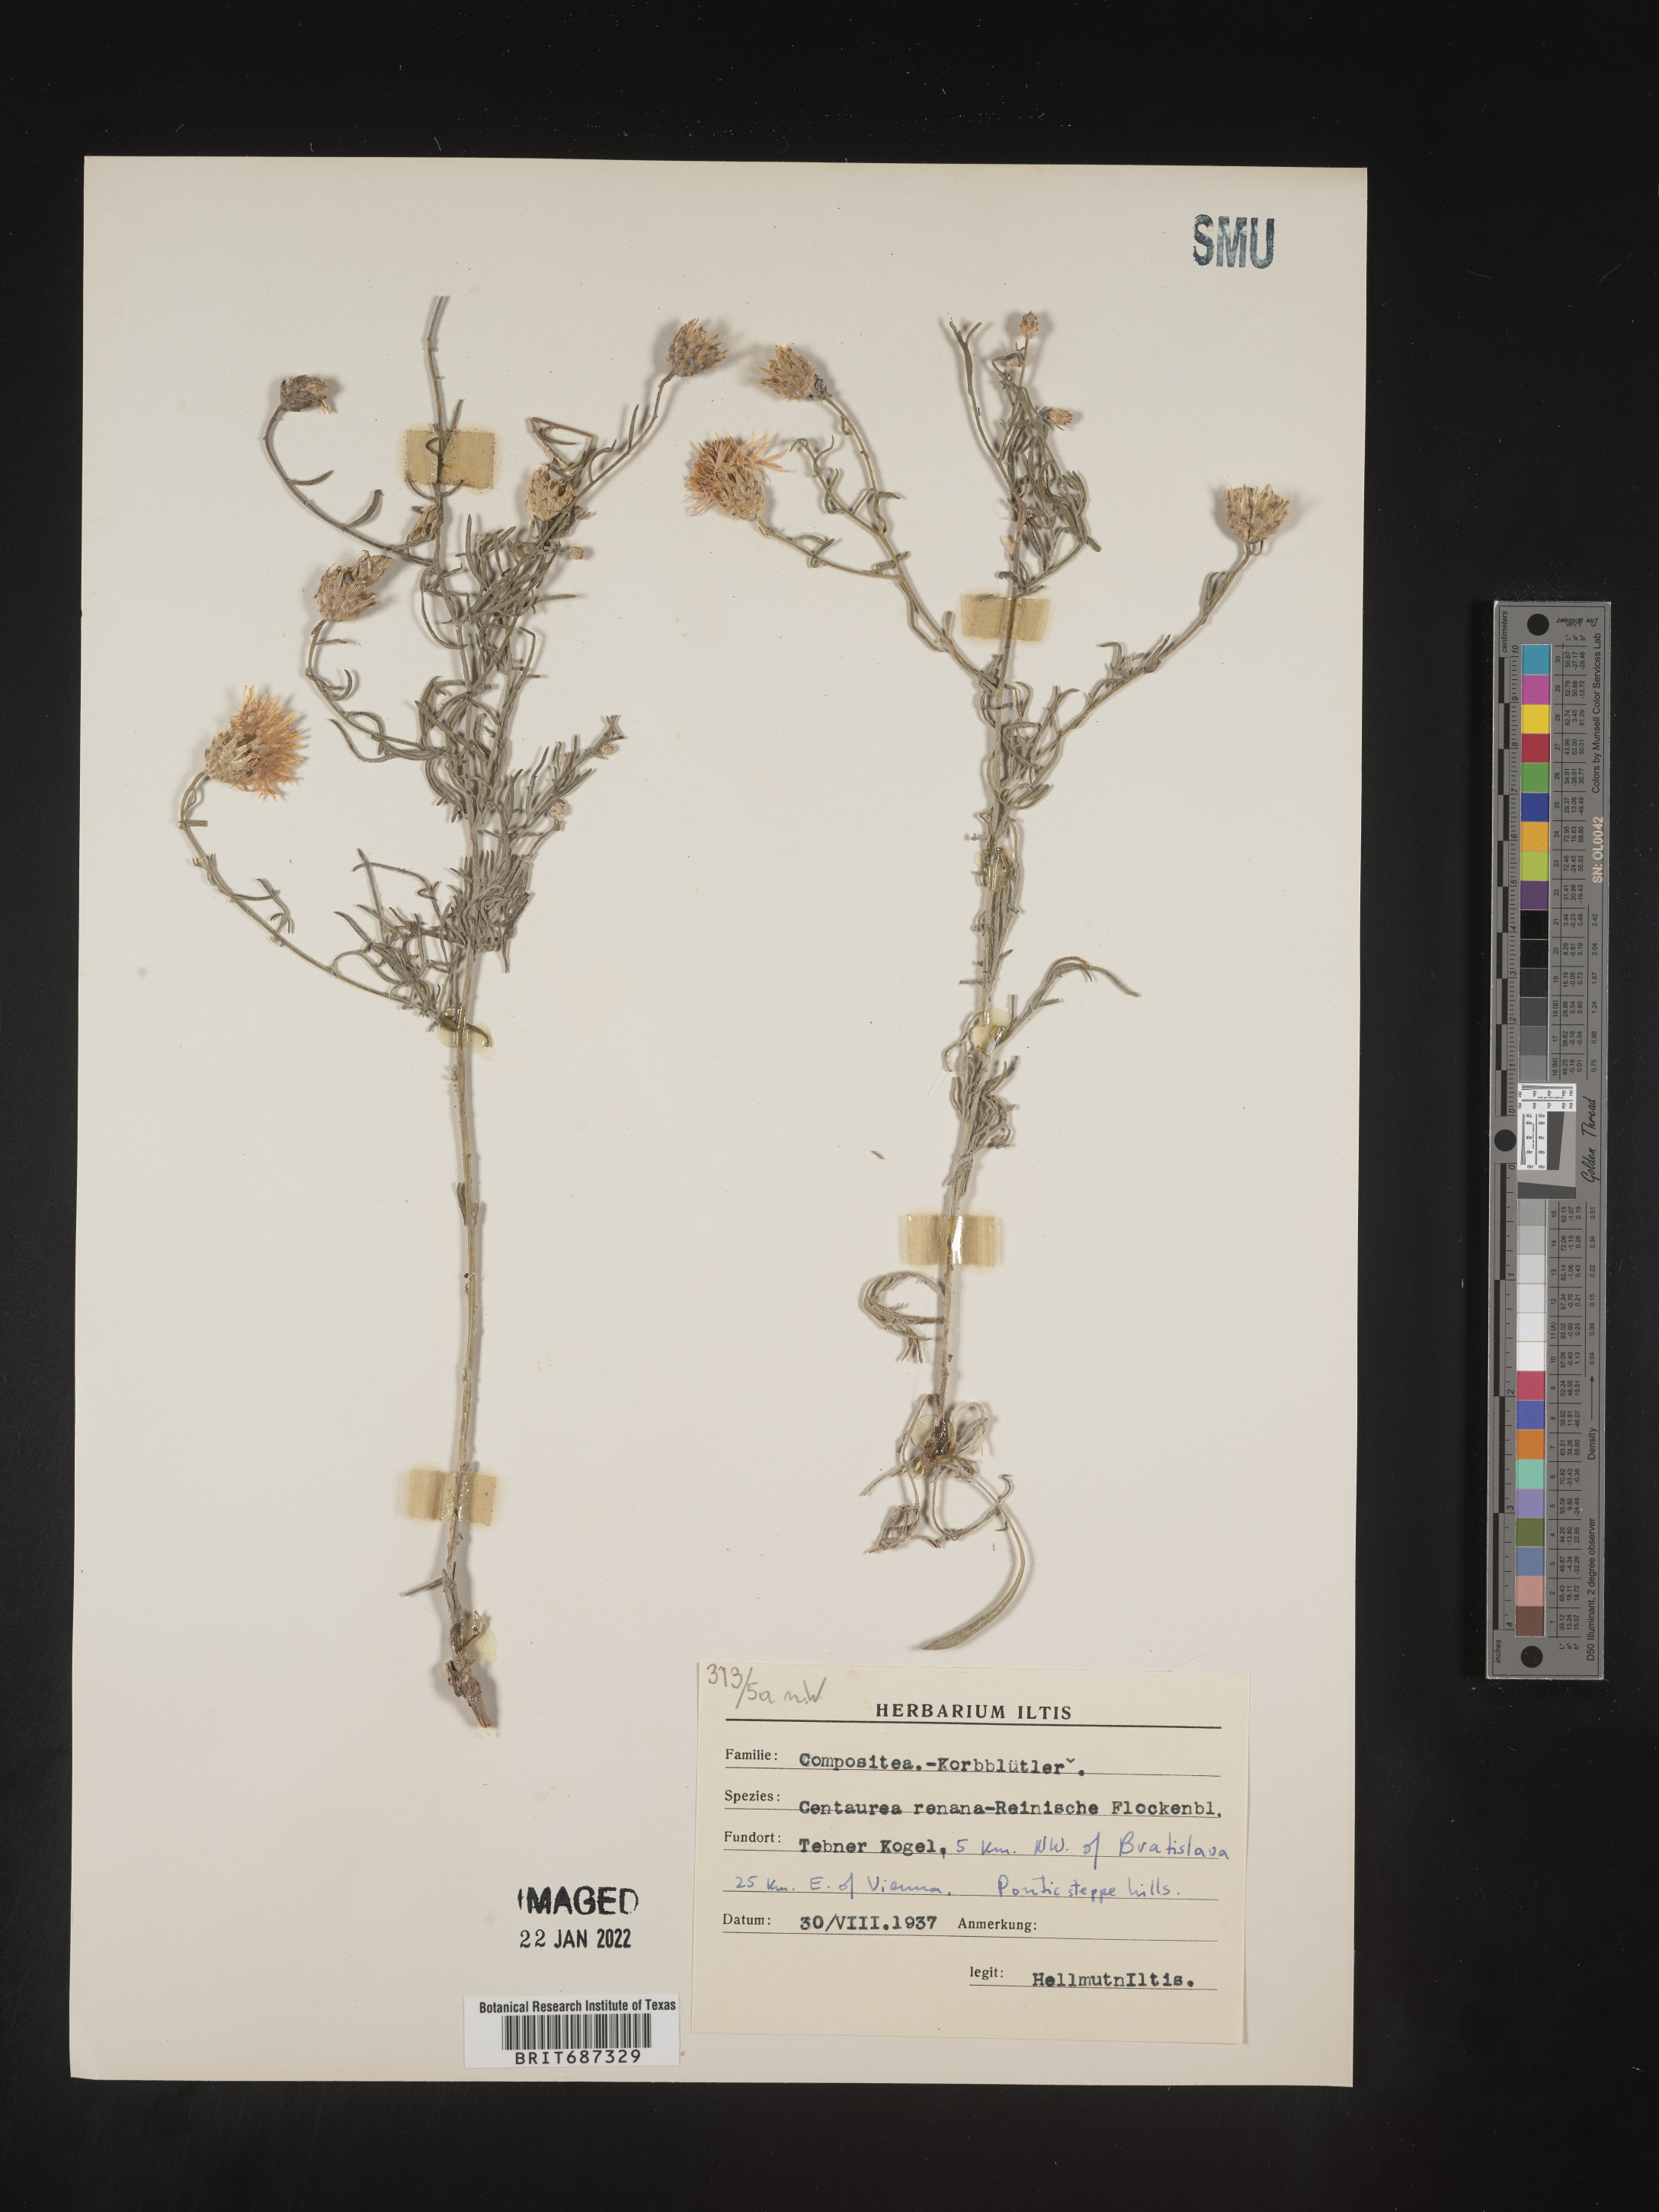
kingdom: Plantae
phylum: Tracheophyta
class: Magnoliopsida
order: Asterales
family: Asteraceae
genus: Centaurea
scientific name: Centaurea
